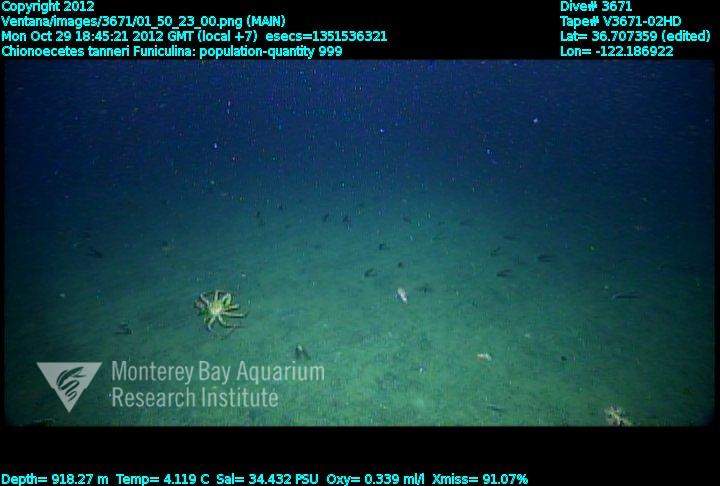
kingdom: Animalia
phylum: Cnidaria
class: Anthozoa
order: Scleralcyonacea
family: Funiculinidae
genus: Funiculina
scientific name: Funiculina
